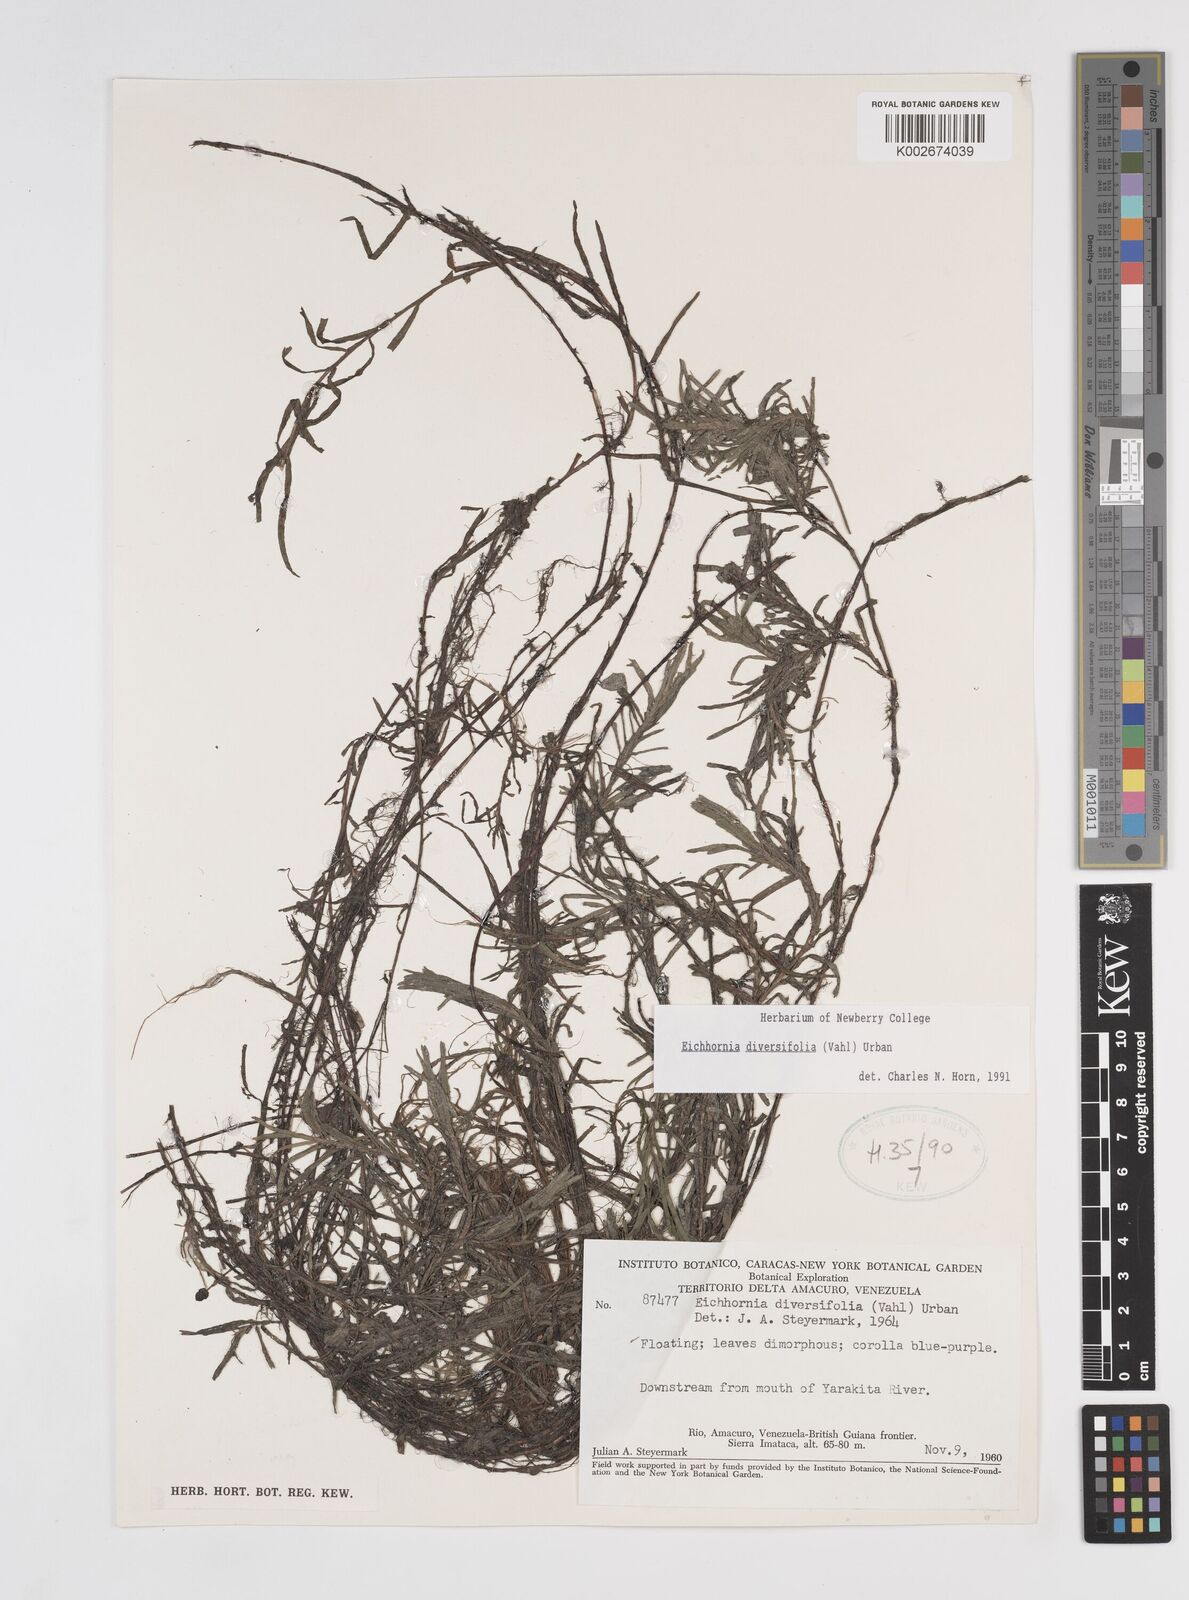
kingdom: Plantae
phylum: Tracheophyta
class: Liliopsida
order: Commelinales
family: Pontederiaceae
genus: Pontederia
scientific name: Pontederia diversifolia
